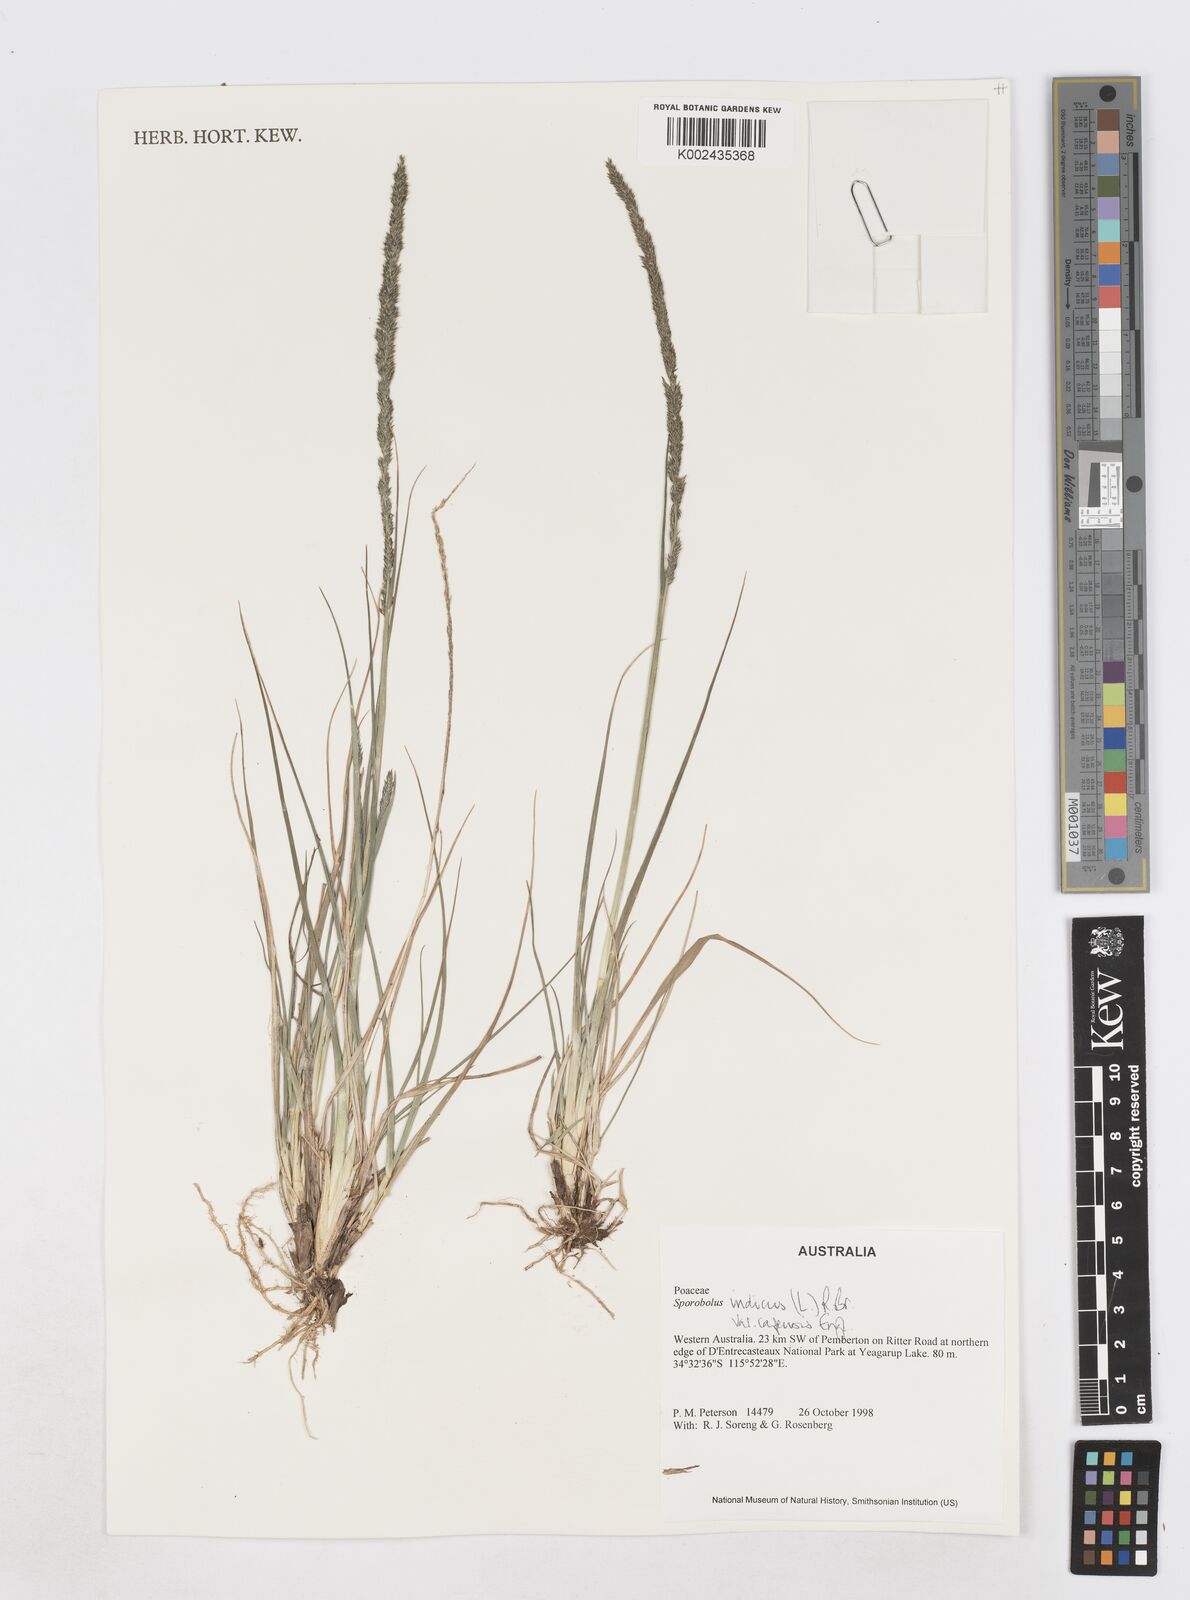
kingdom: Plantae
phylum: Tracheophyta
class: Liliopsida
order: Poales
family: Poaceae
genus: Sporobolus
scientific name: Sporobolus africanus
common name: African dropseed
